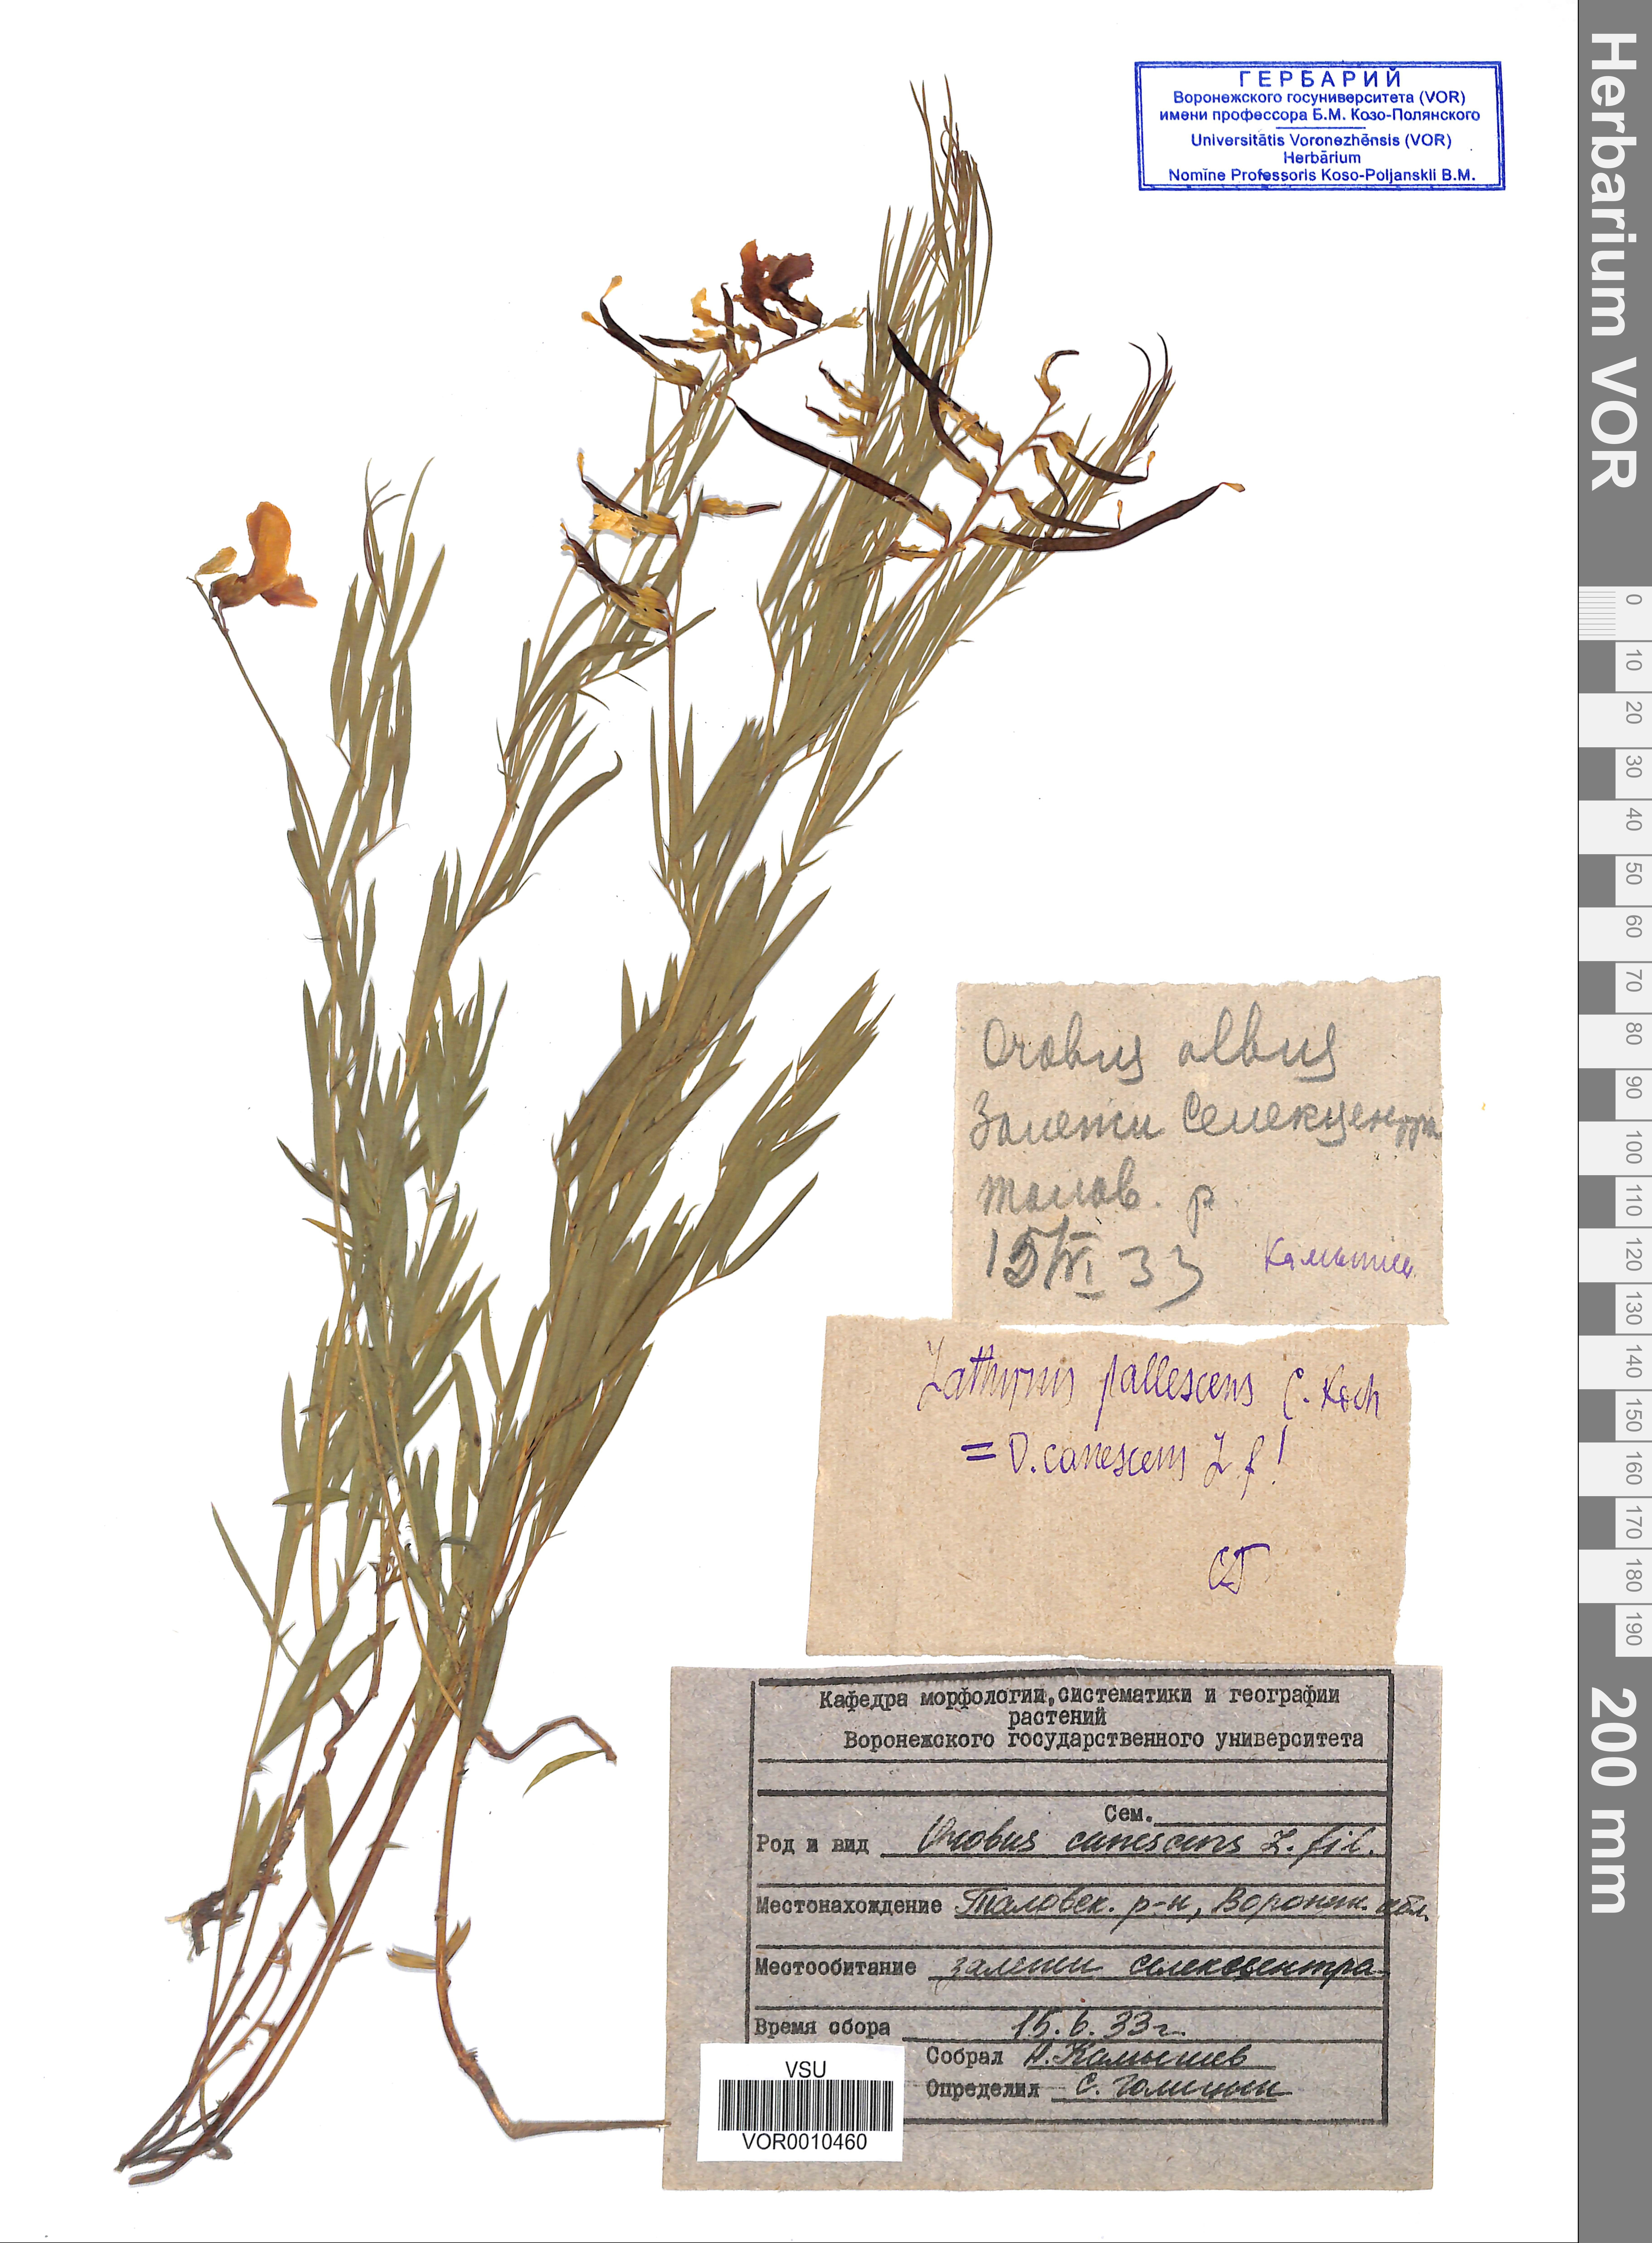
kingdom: Plantae
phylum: Tracheophyta
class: Magnoliopsida
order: Fabales
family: Fabaceae
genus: Lathyrus
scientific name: Lathyrus filiformis
